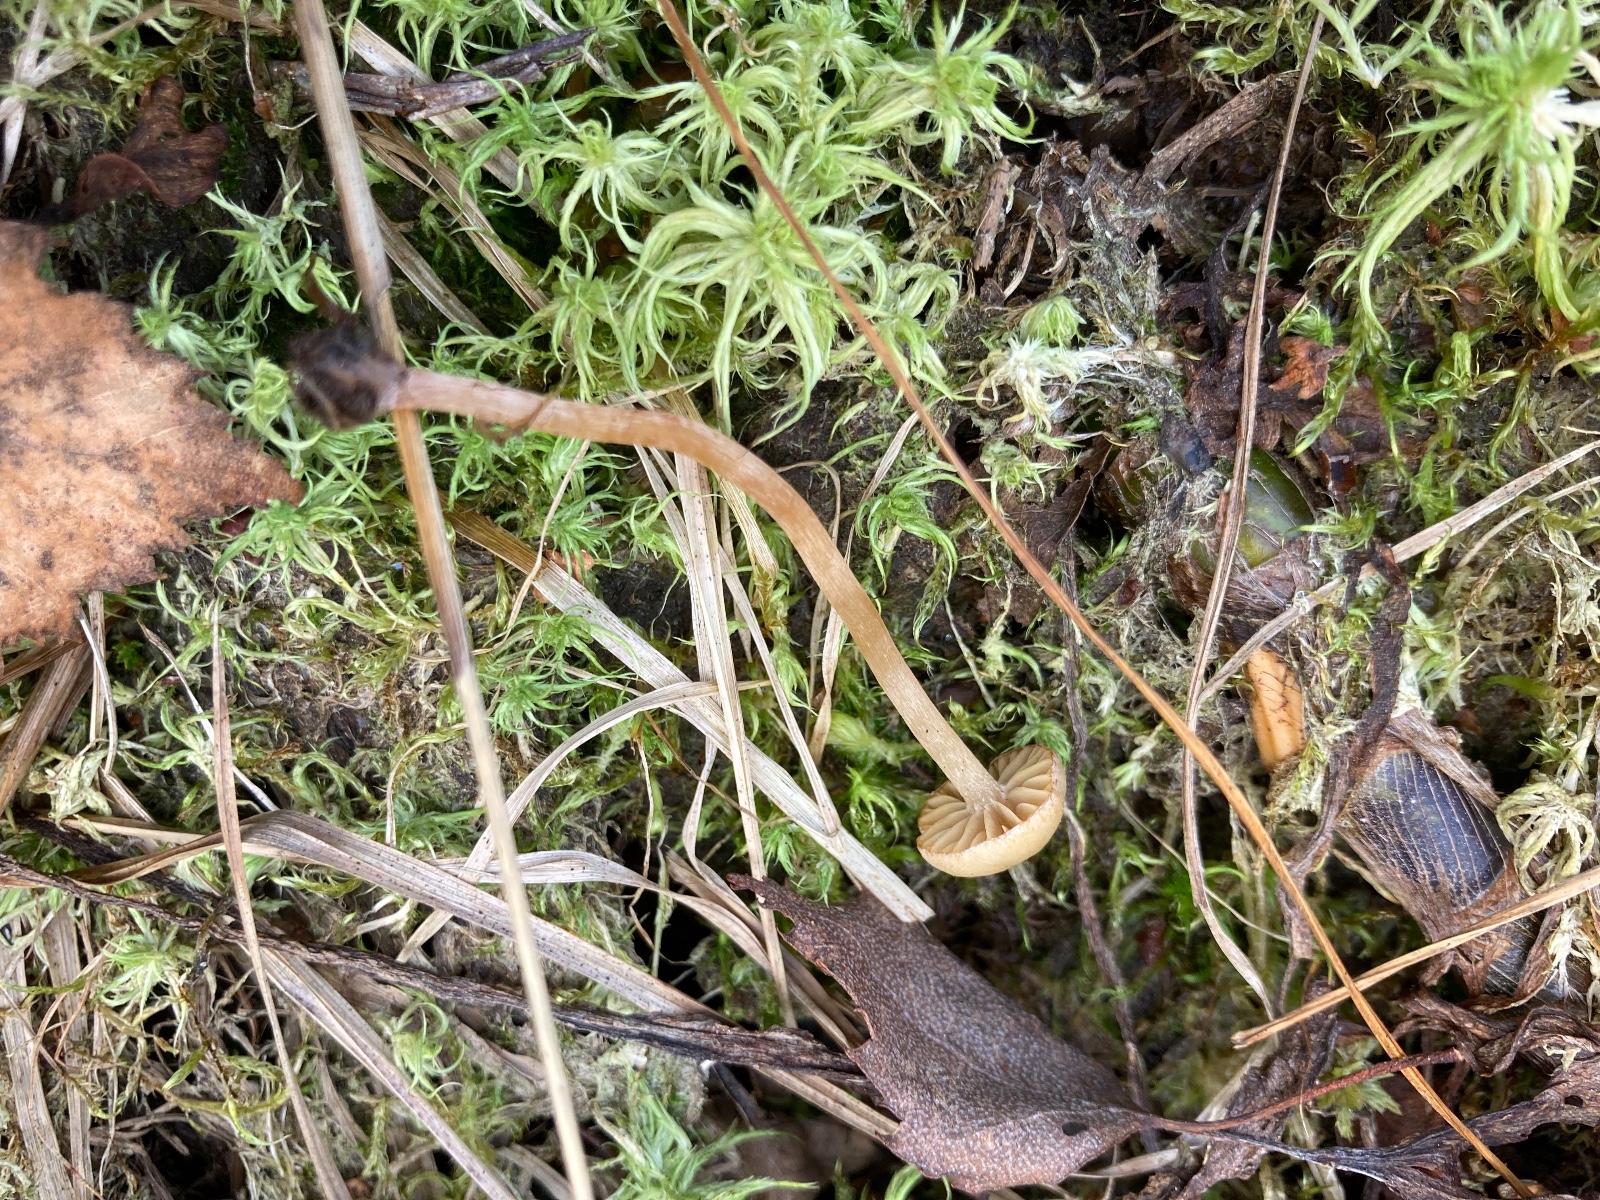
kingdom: Fungi
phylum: Basidiomycota
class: Agaricomycetes
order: Agaricales
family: Strophariaceae
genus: Hypholoma
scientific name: Hypholoma elongatum
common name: slank svovlhat
